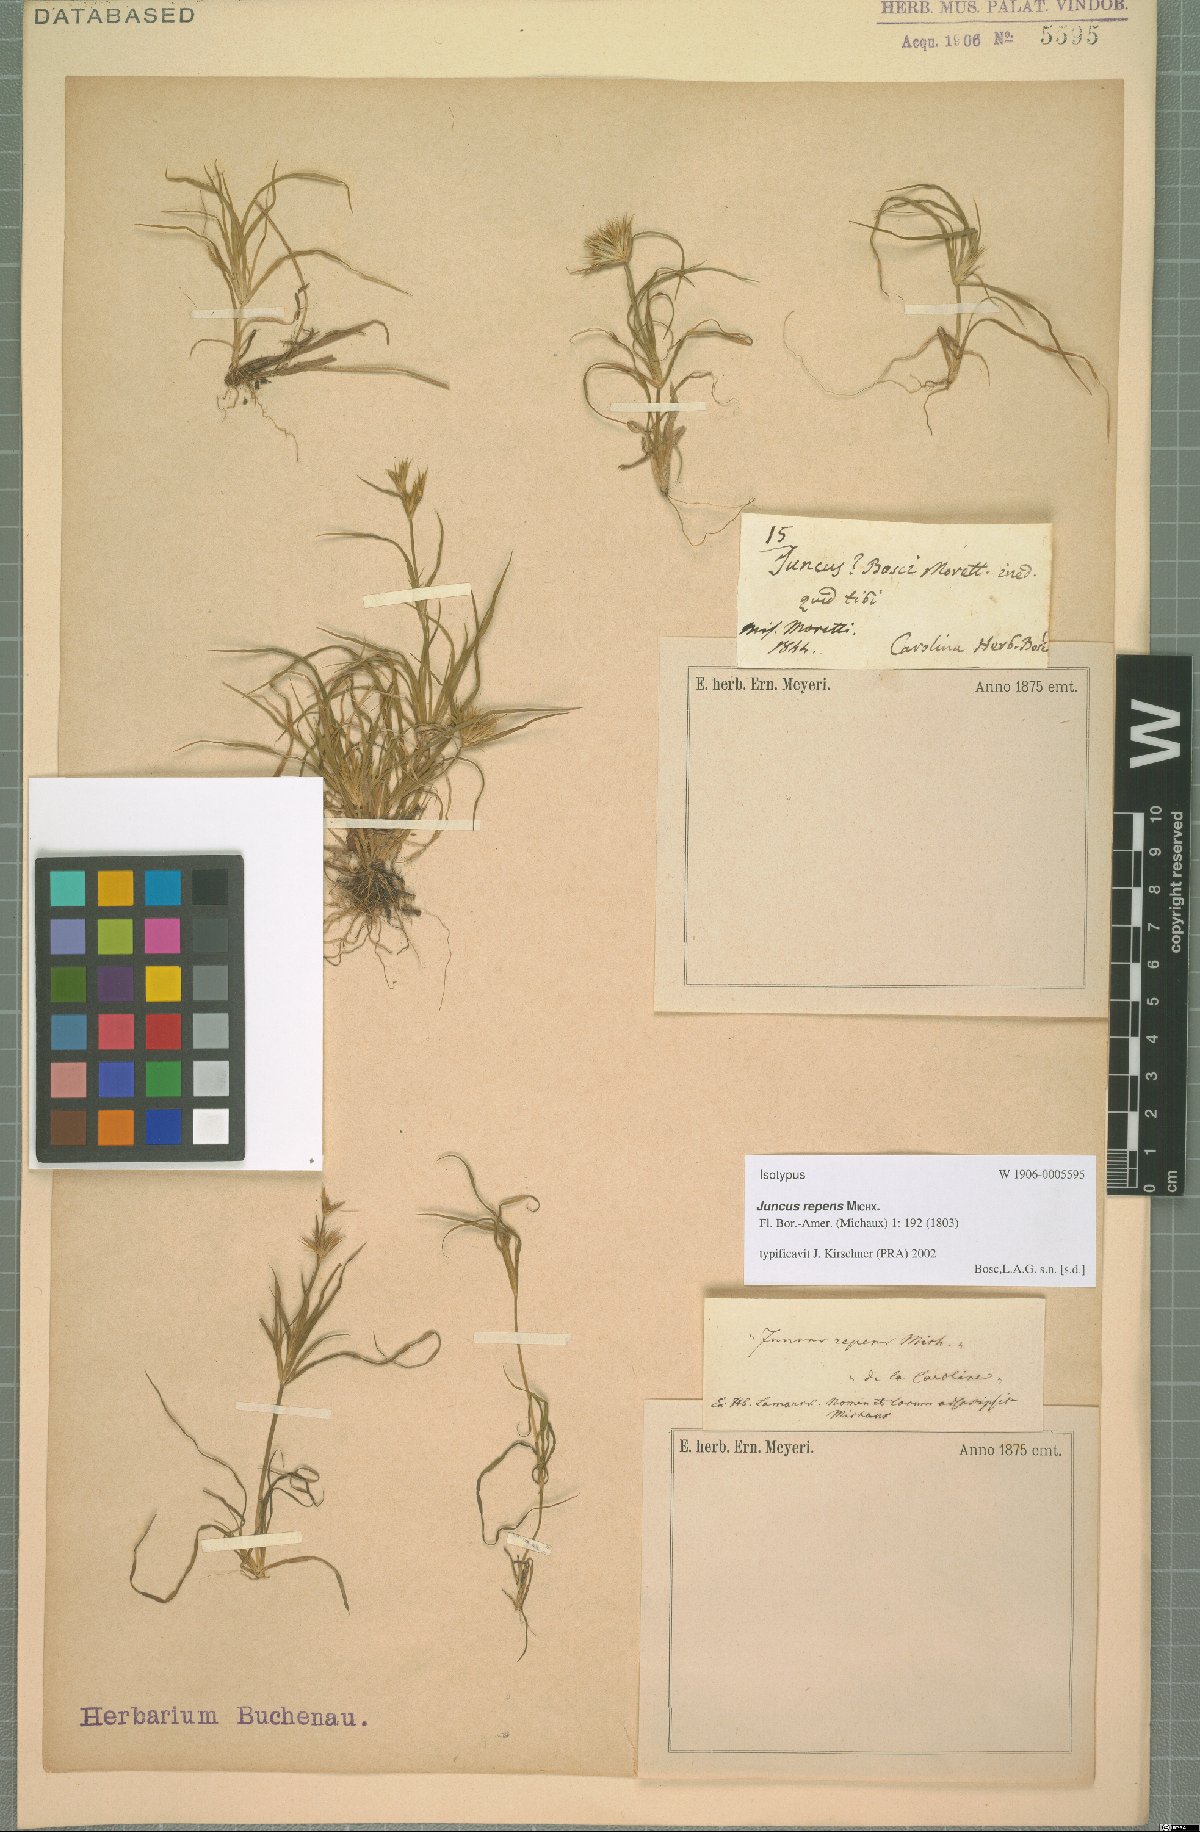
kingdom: Plantae
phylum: Tracheophyta
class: Liliopsida
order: Poales
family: Juncaceae
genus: Juncus
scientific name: Juncus repens
